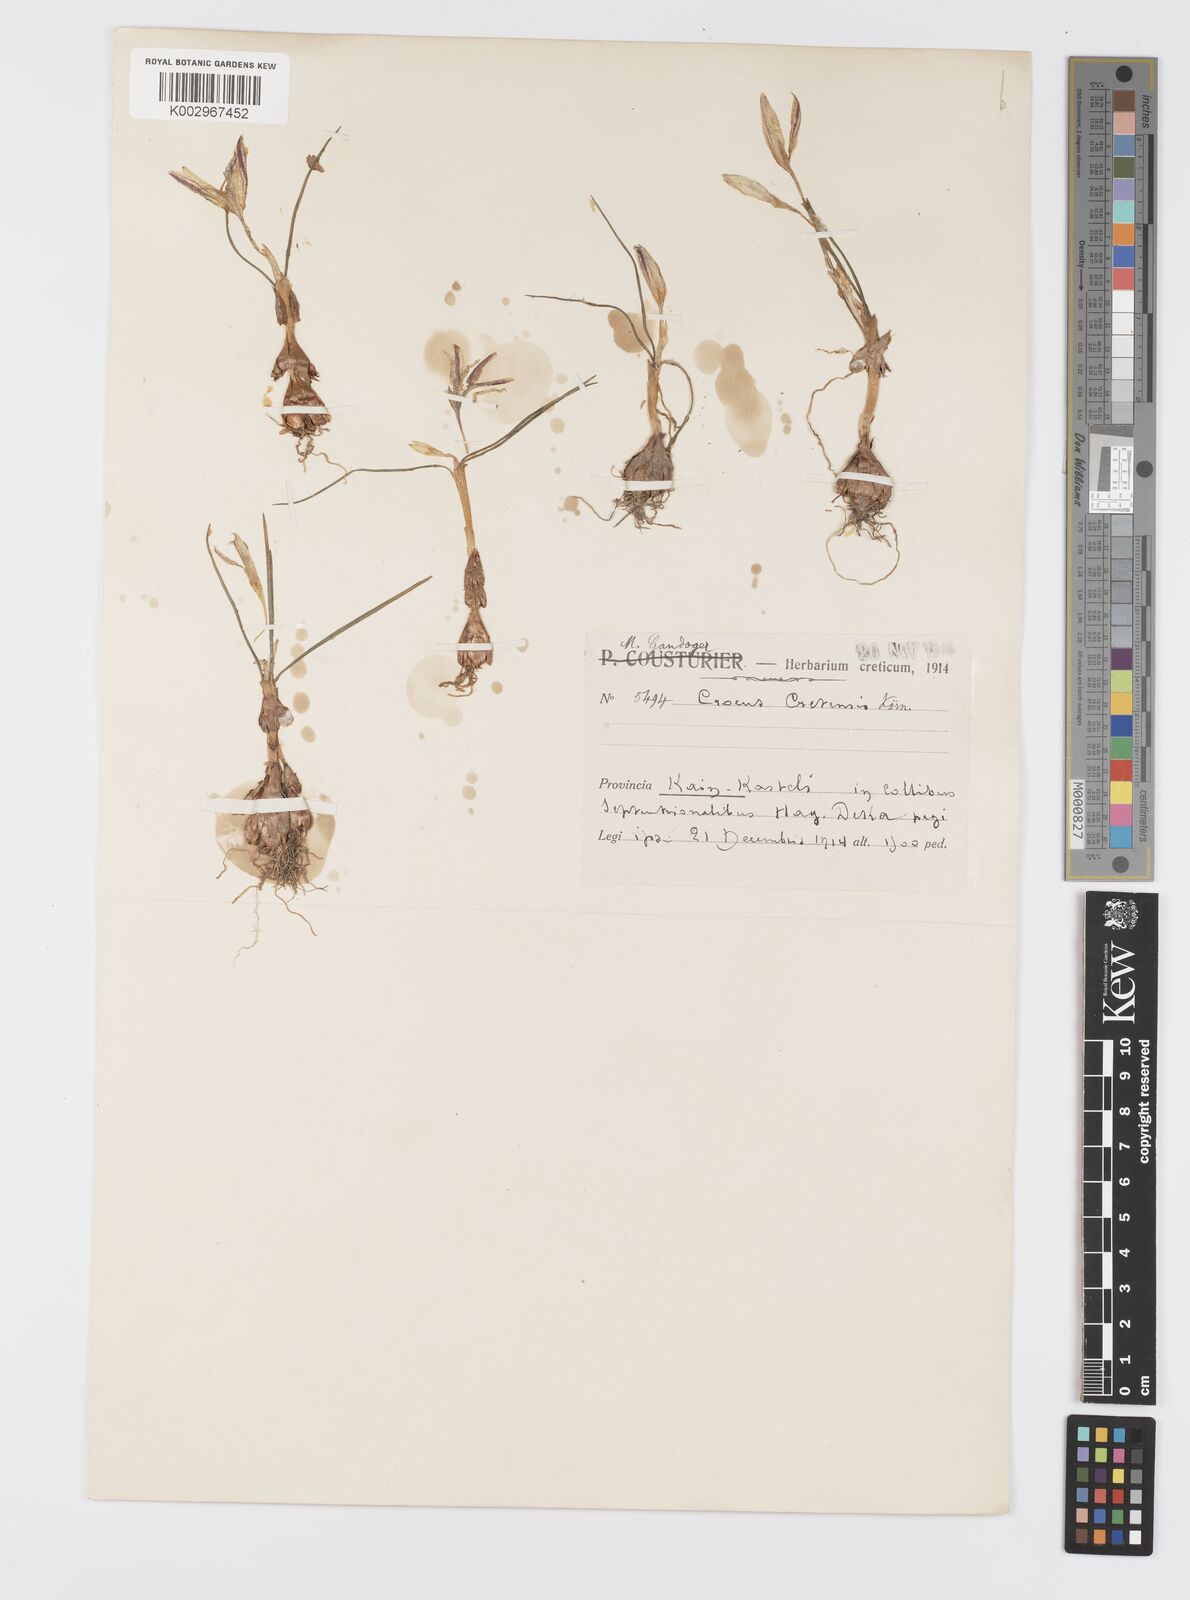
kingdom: Plantae
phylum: Tracheophyta
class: Liliopsida
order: Asparagales
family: Iridaceae
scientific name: Iridaceae
